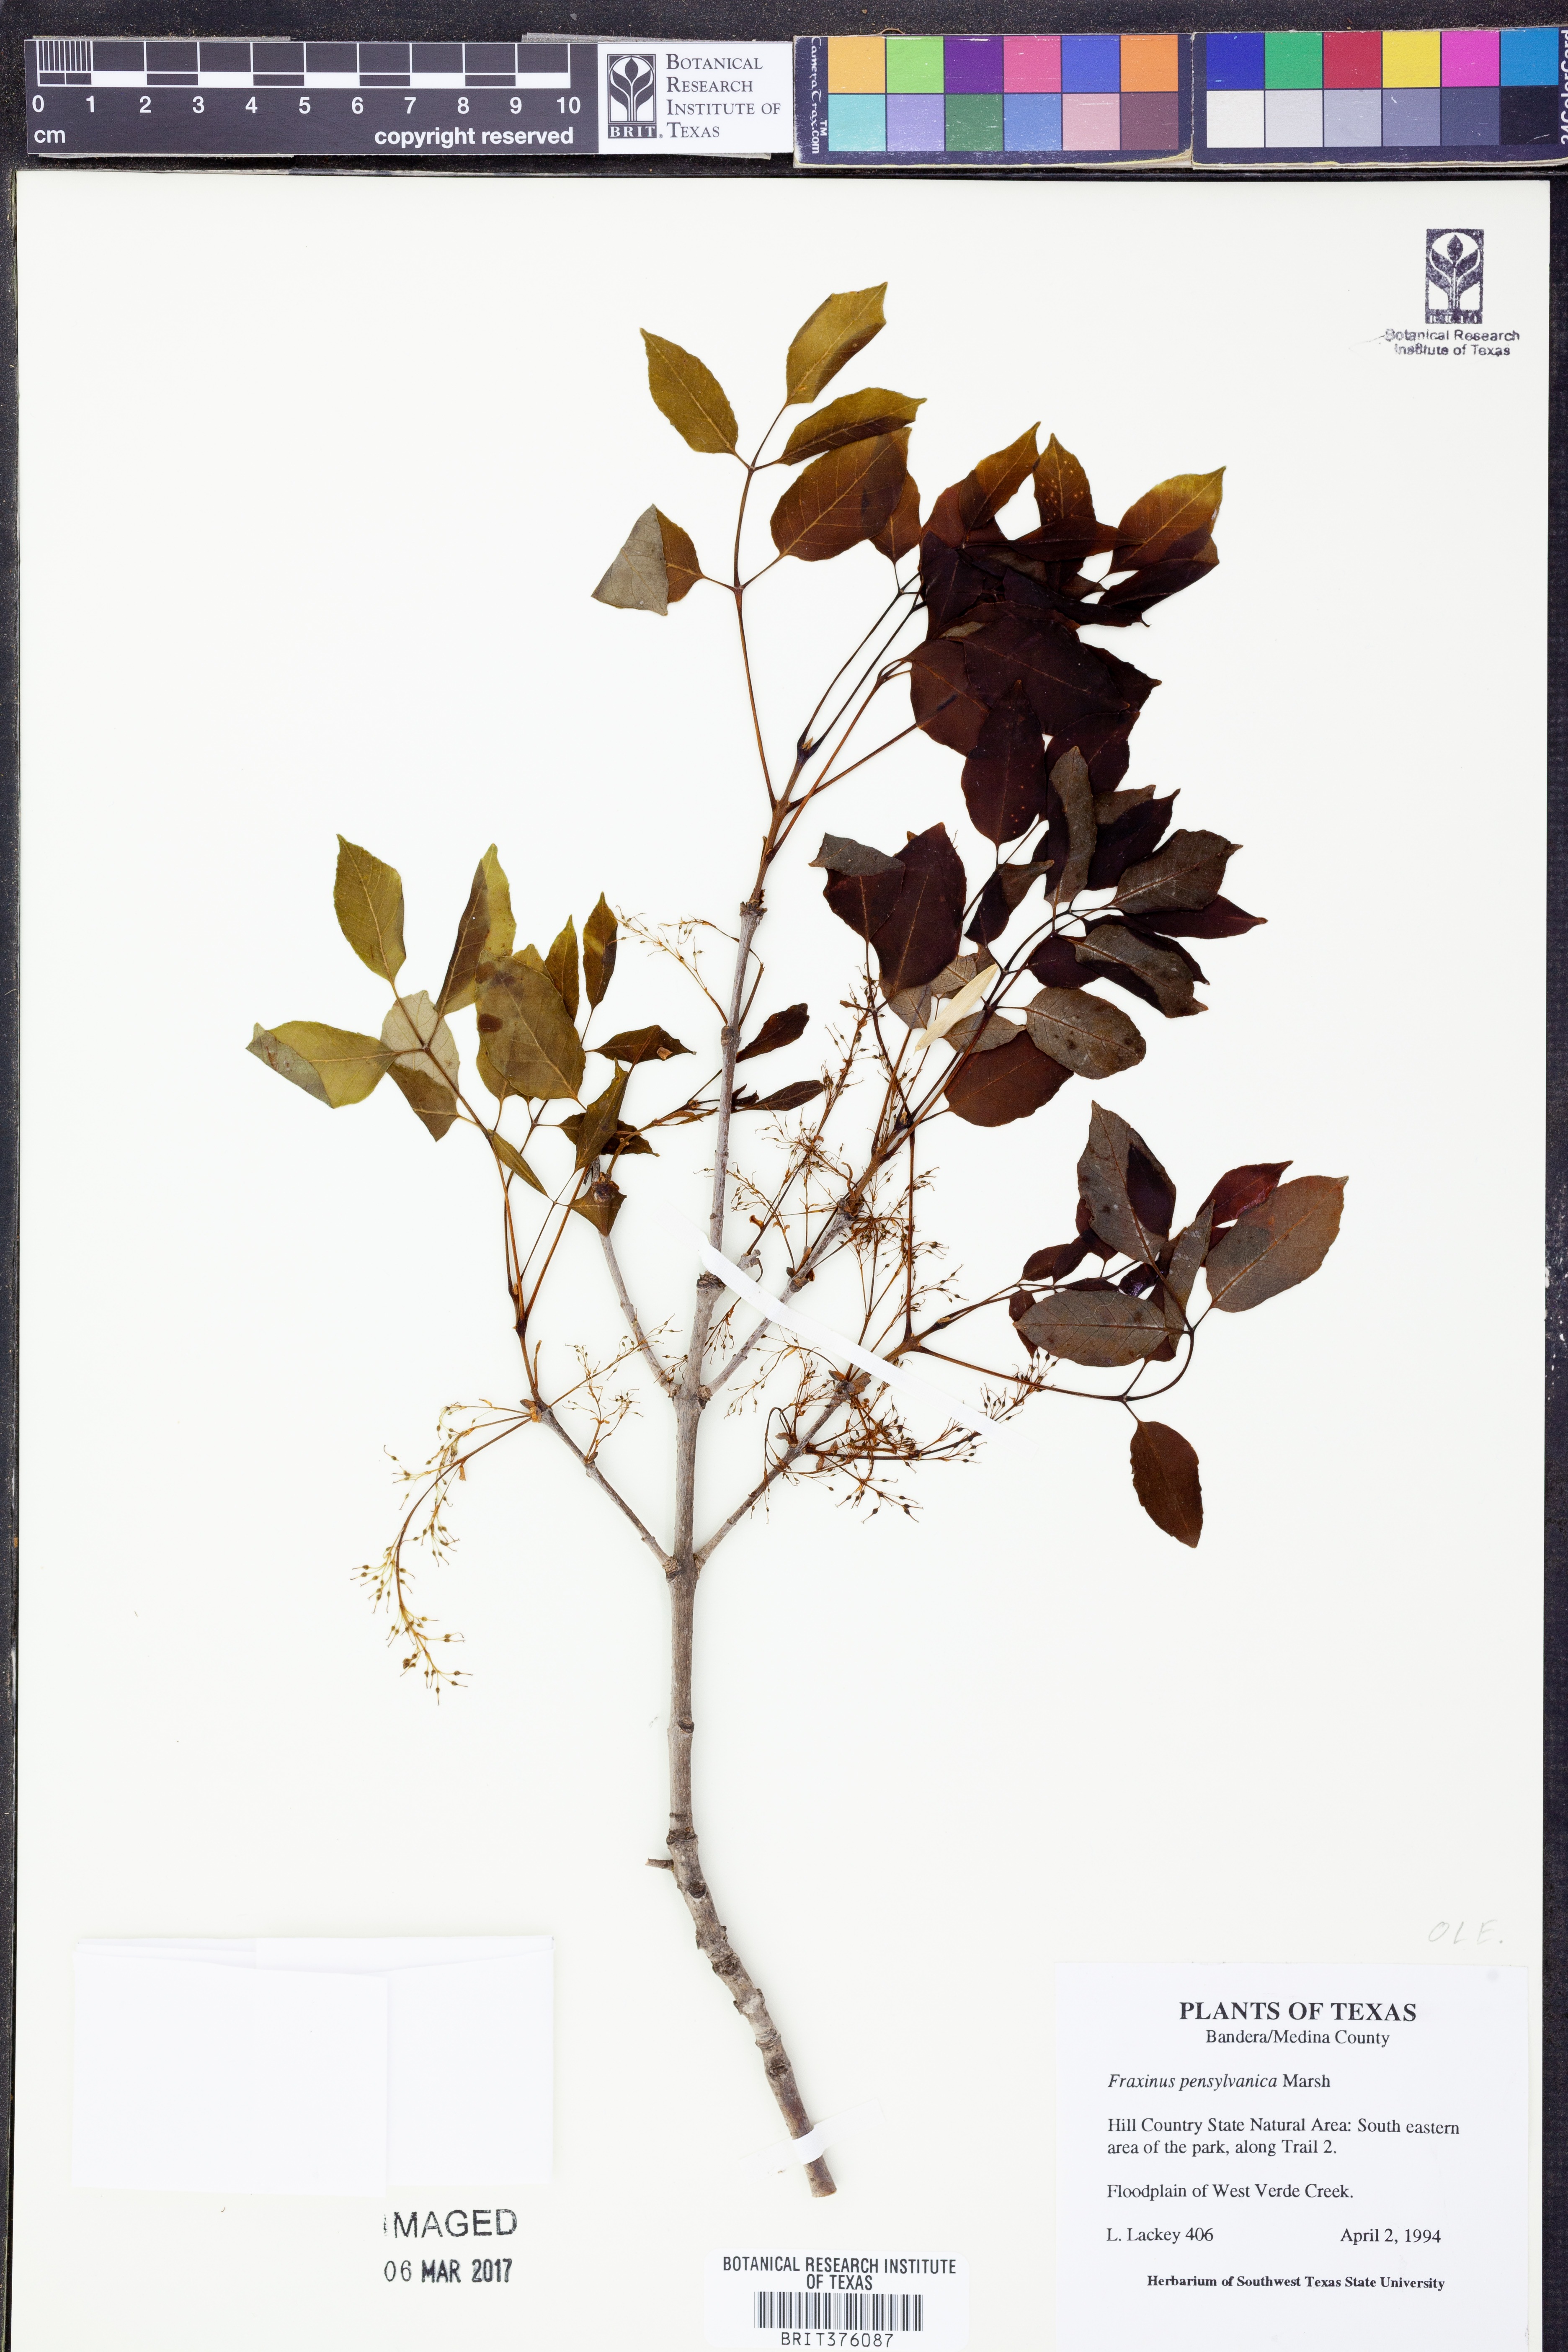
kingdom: Plantae
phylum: Tracheophyta
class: Magnoliopsida
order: Lamiales
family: Oleaceae
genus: Fraxinus
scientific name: Fraxinus pennsylvanica
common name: Green ash
